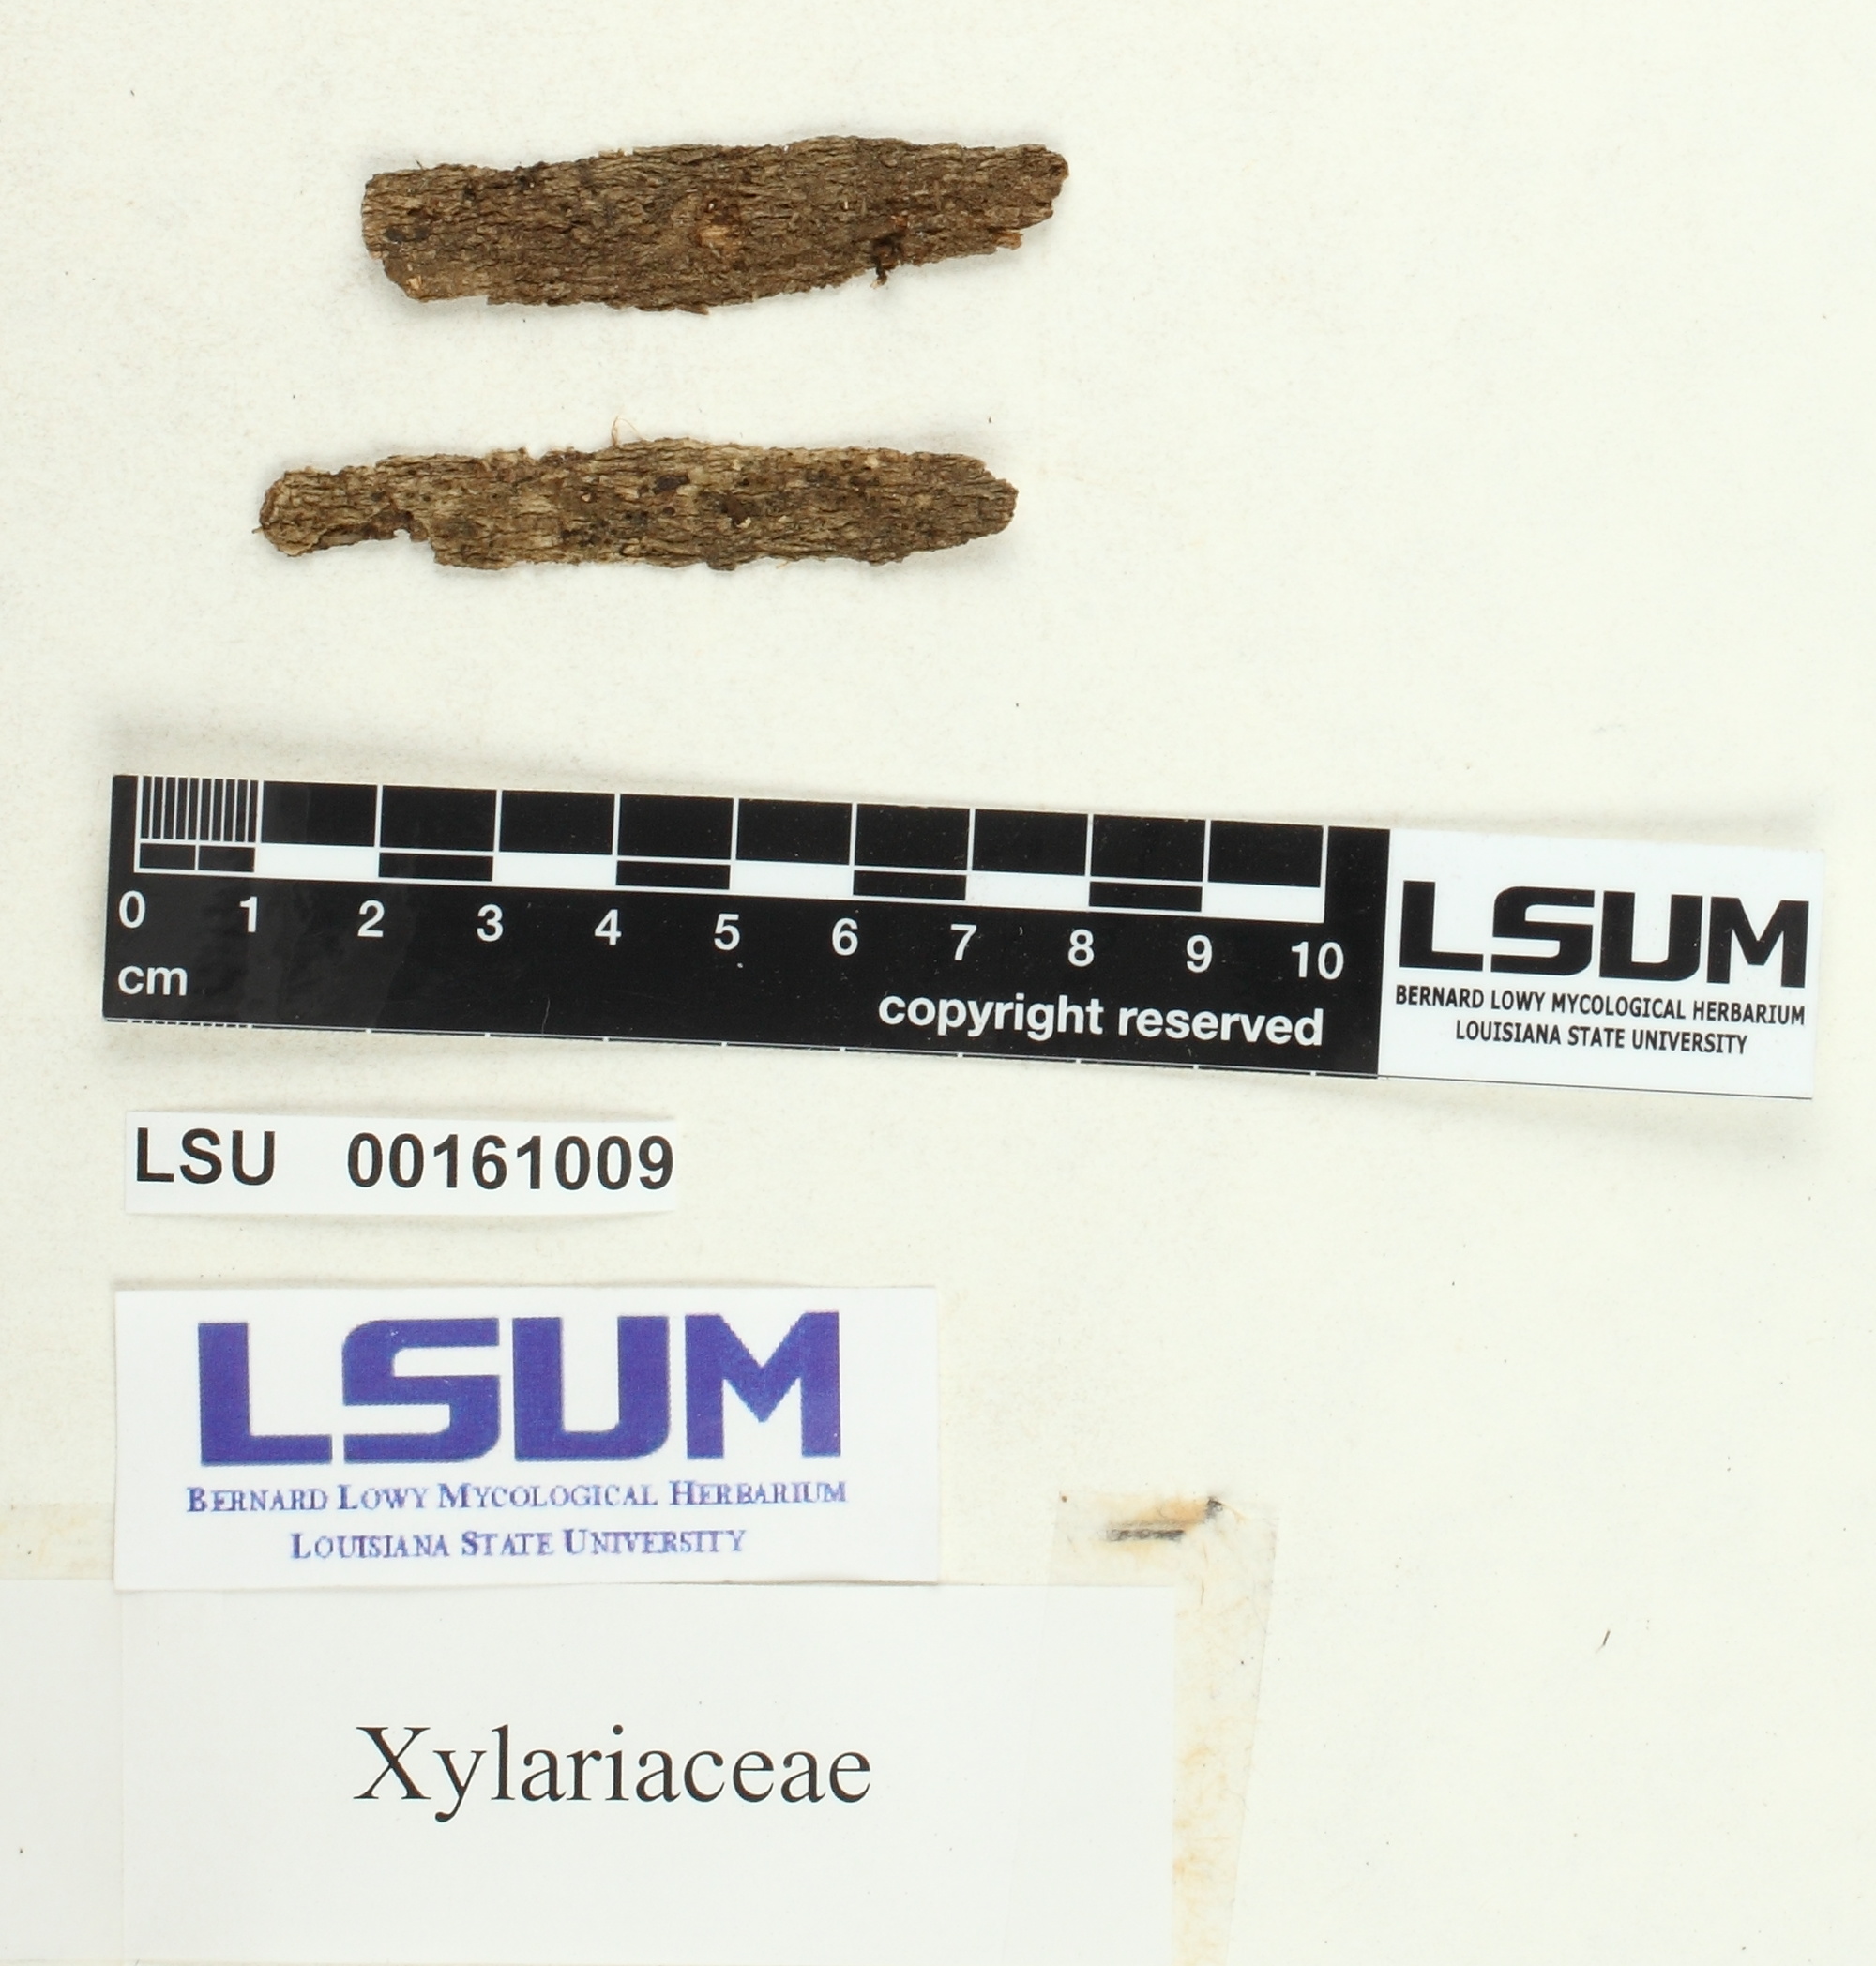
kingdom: Fungi
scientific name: Fungi
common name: Fungi
